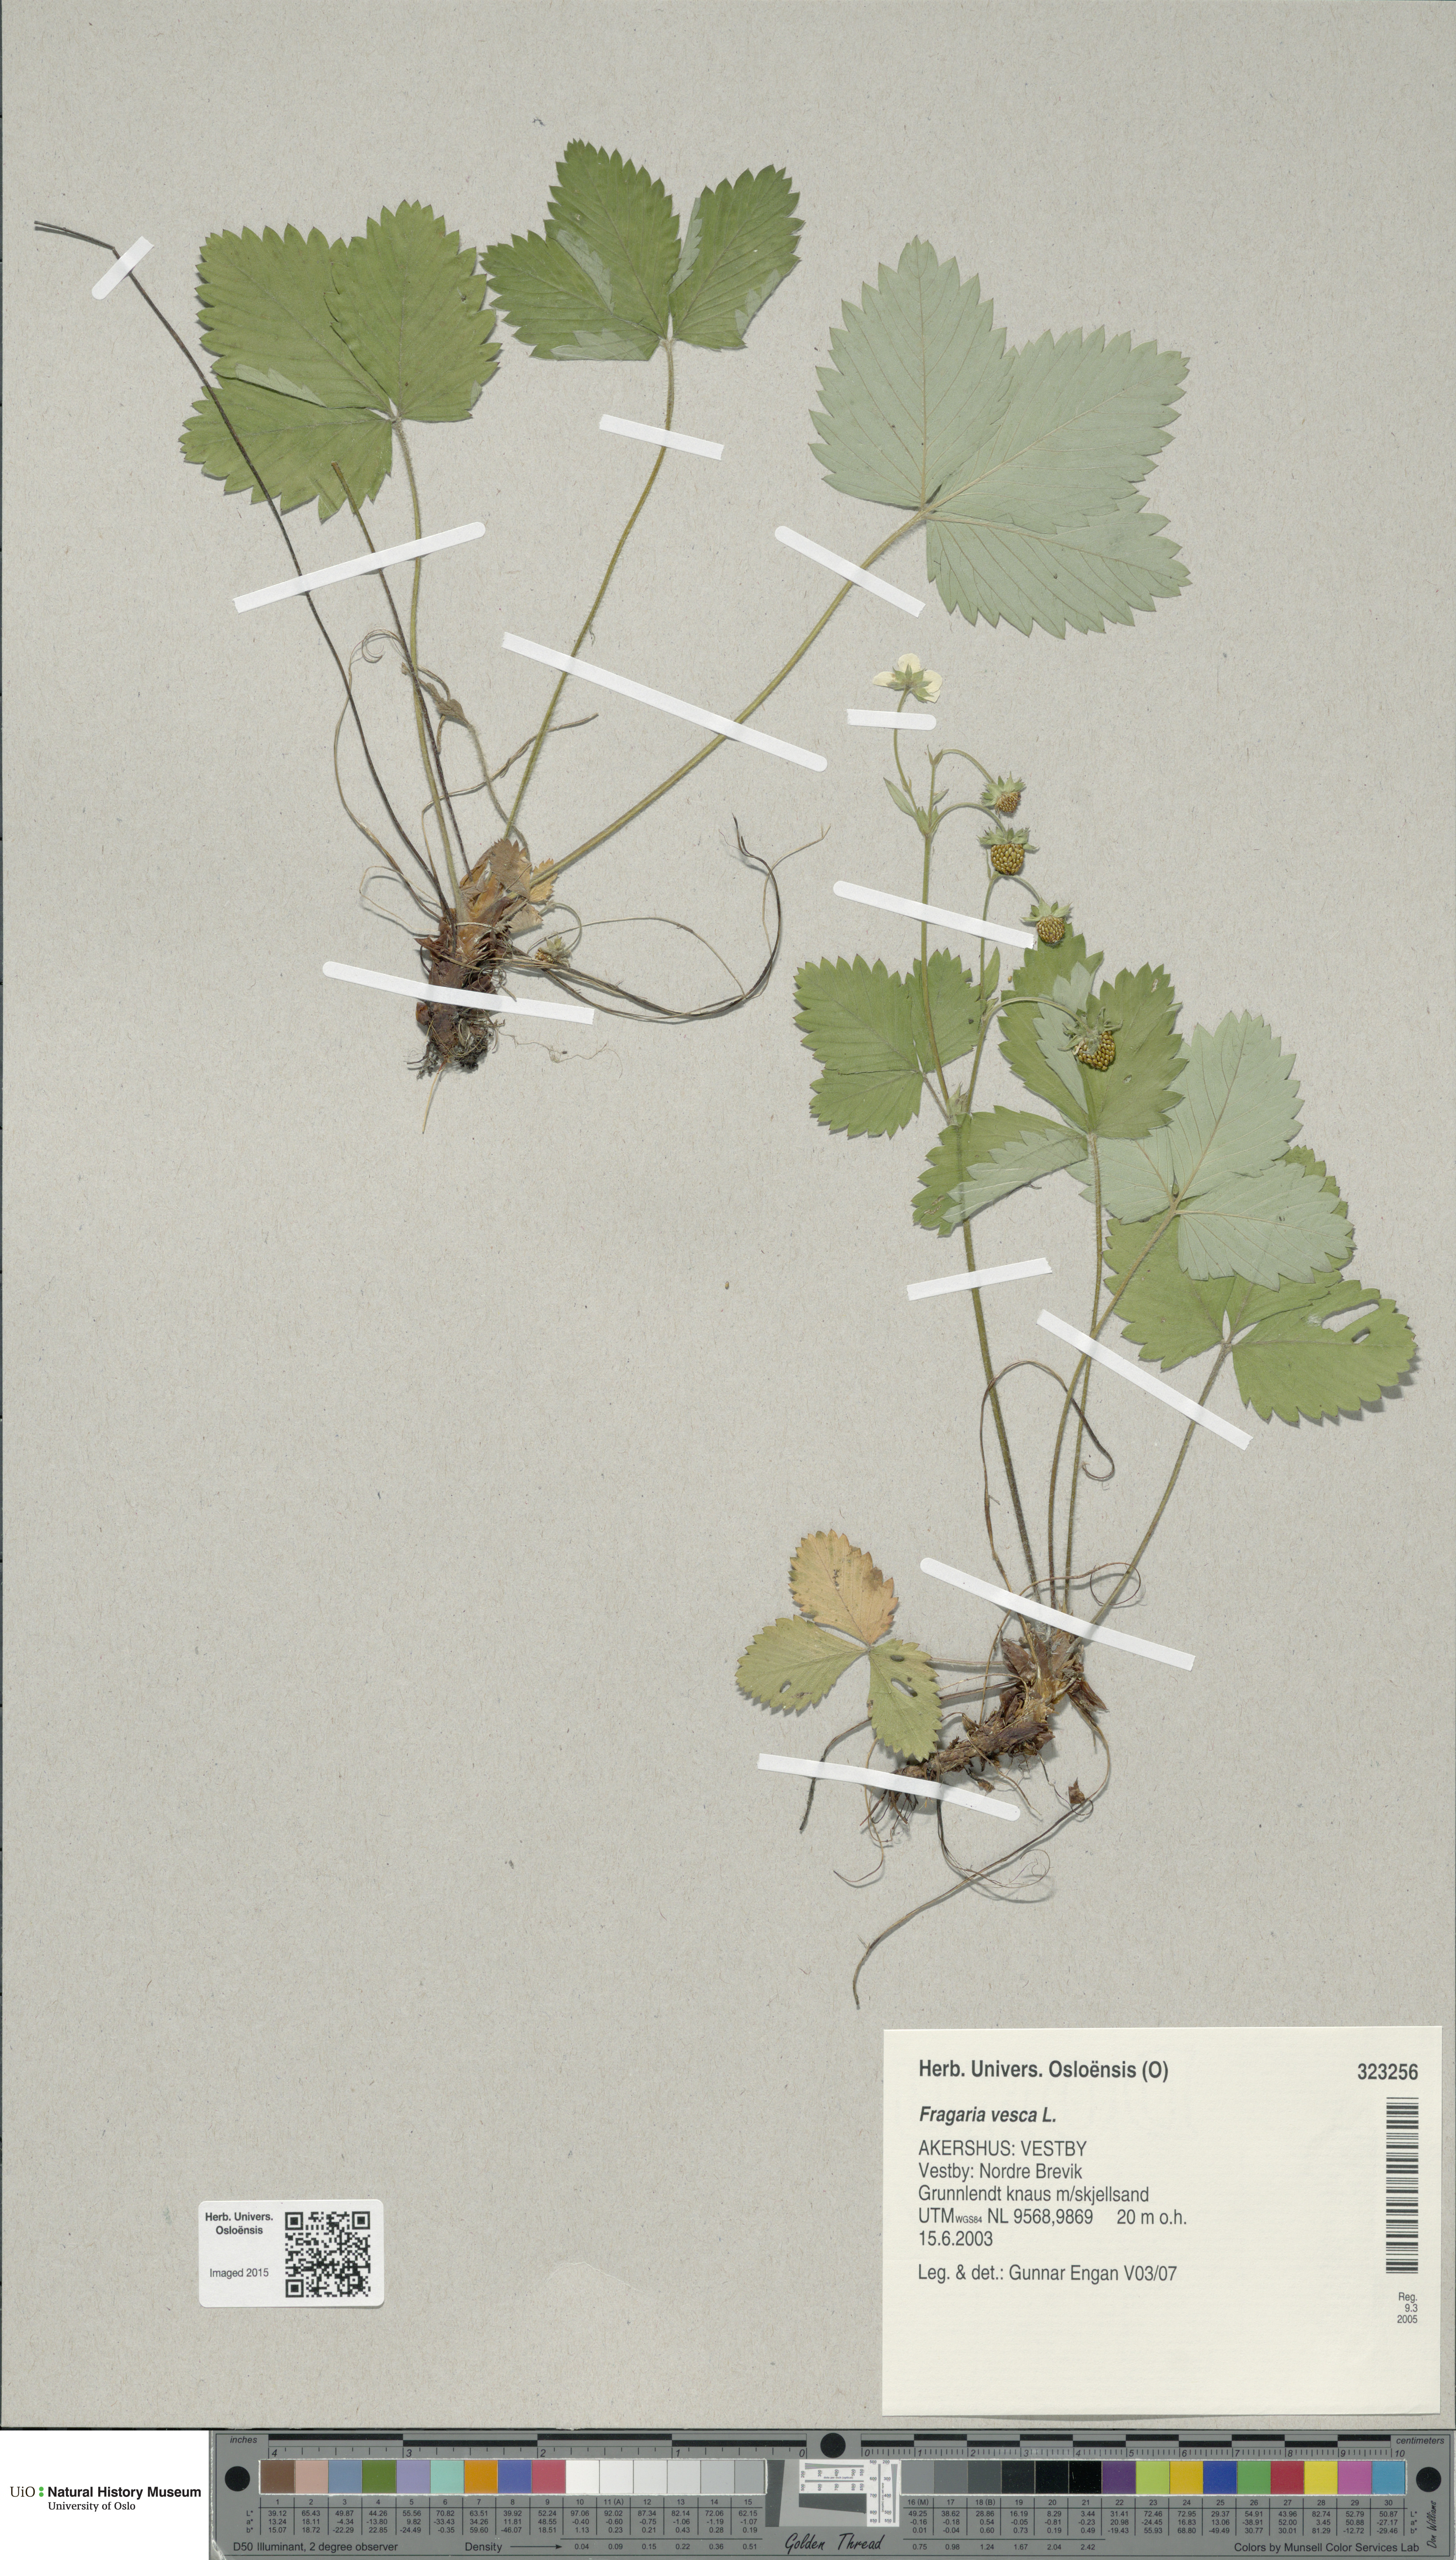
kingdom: Plantae
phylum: Tracheophyta
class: Magnoliopsida
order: Rosales
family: Rosaceae
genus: Fragaria
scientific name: Fragaria vesca
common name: Wild strawberry
